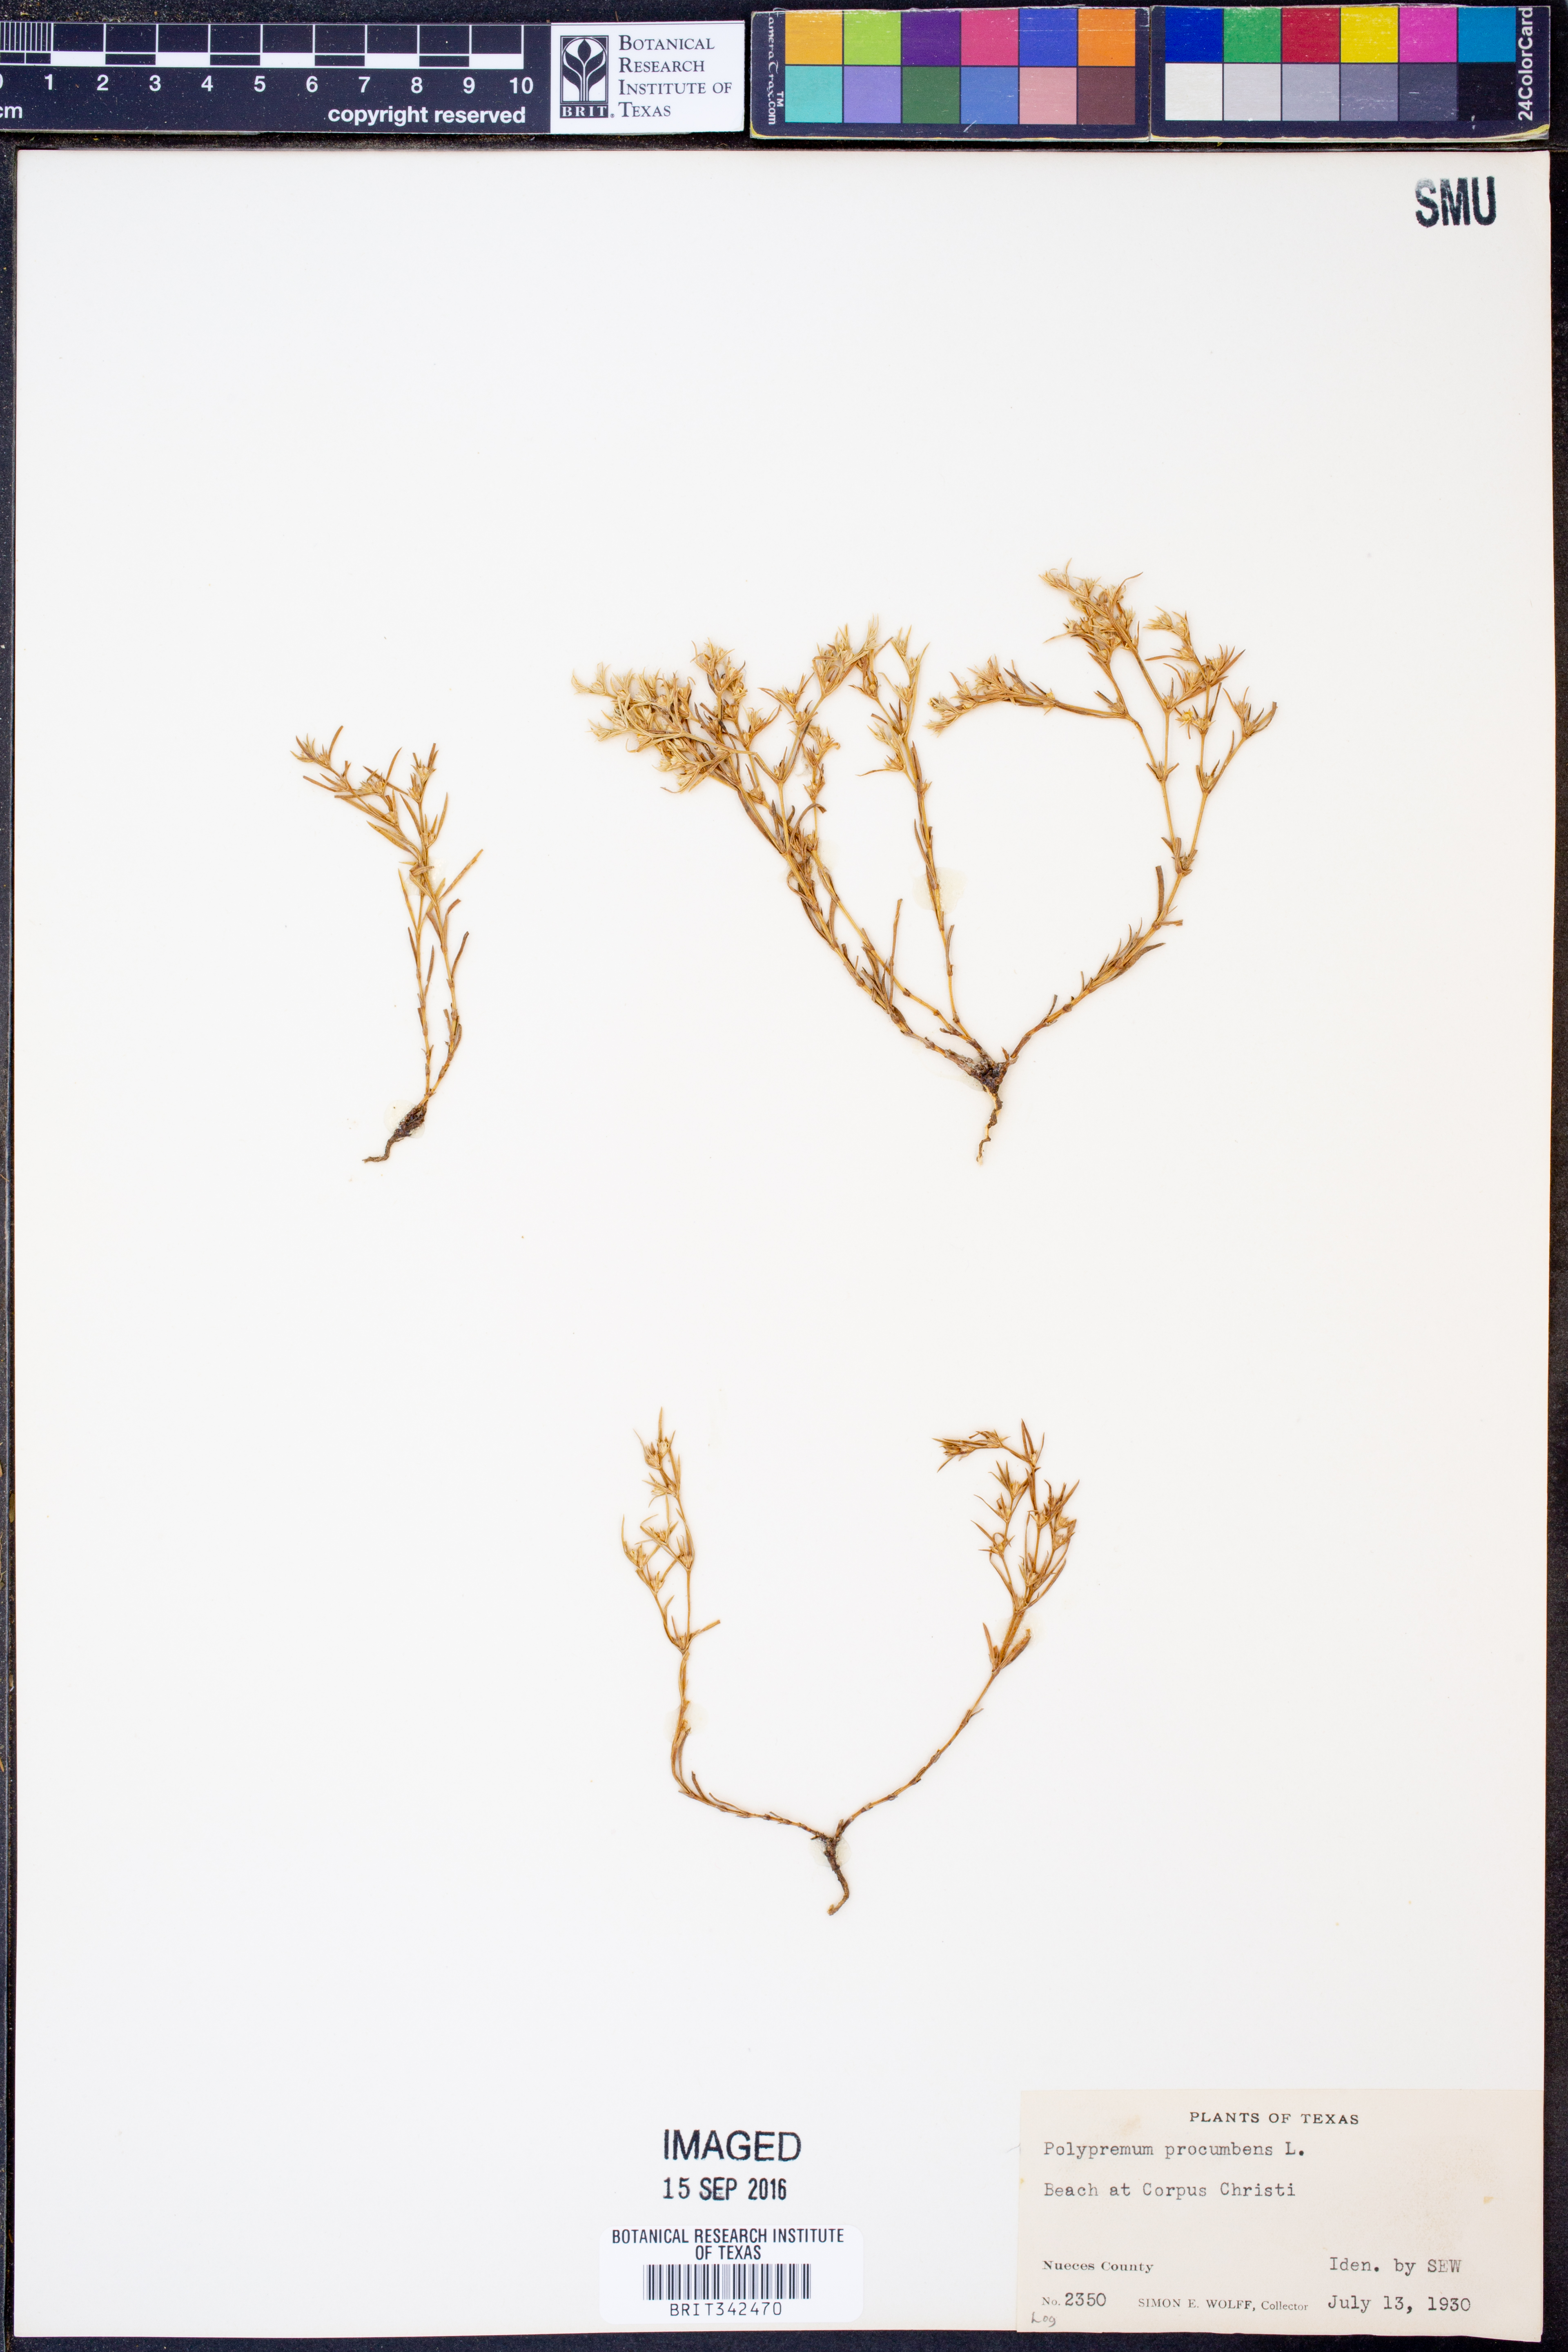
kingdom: Plantae
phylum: Tracheophyta
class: Magnoliopsida
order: Lamiales
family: Tetrachondraceae
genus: Polypremum
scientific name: Polypremum procumbens
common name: Juniper-leaf
